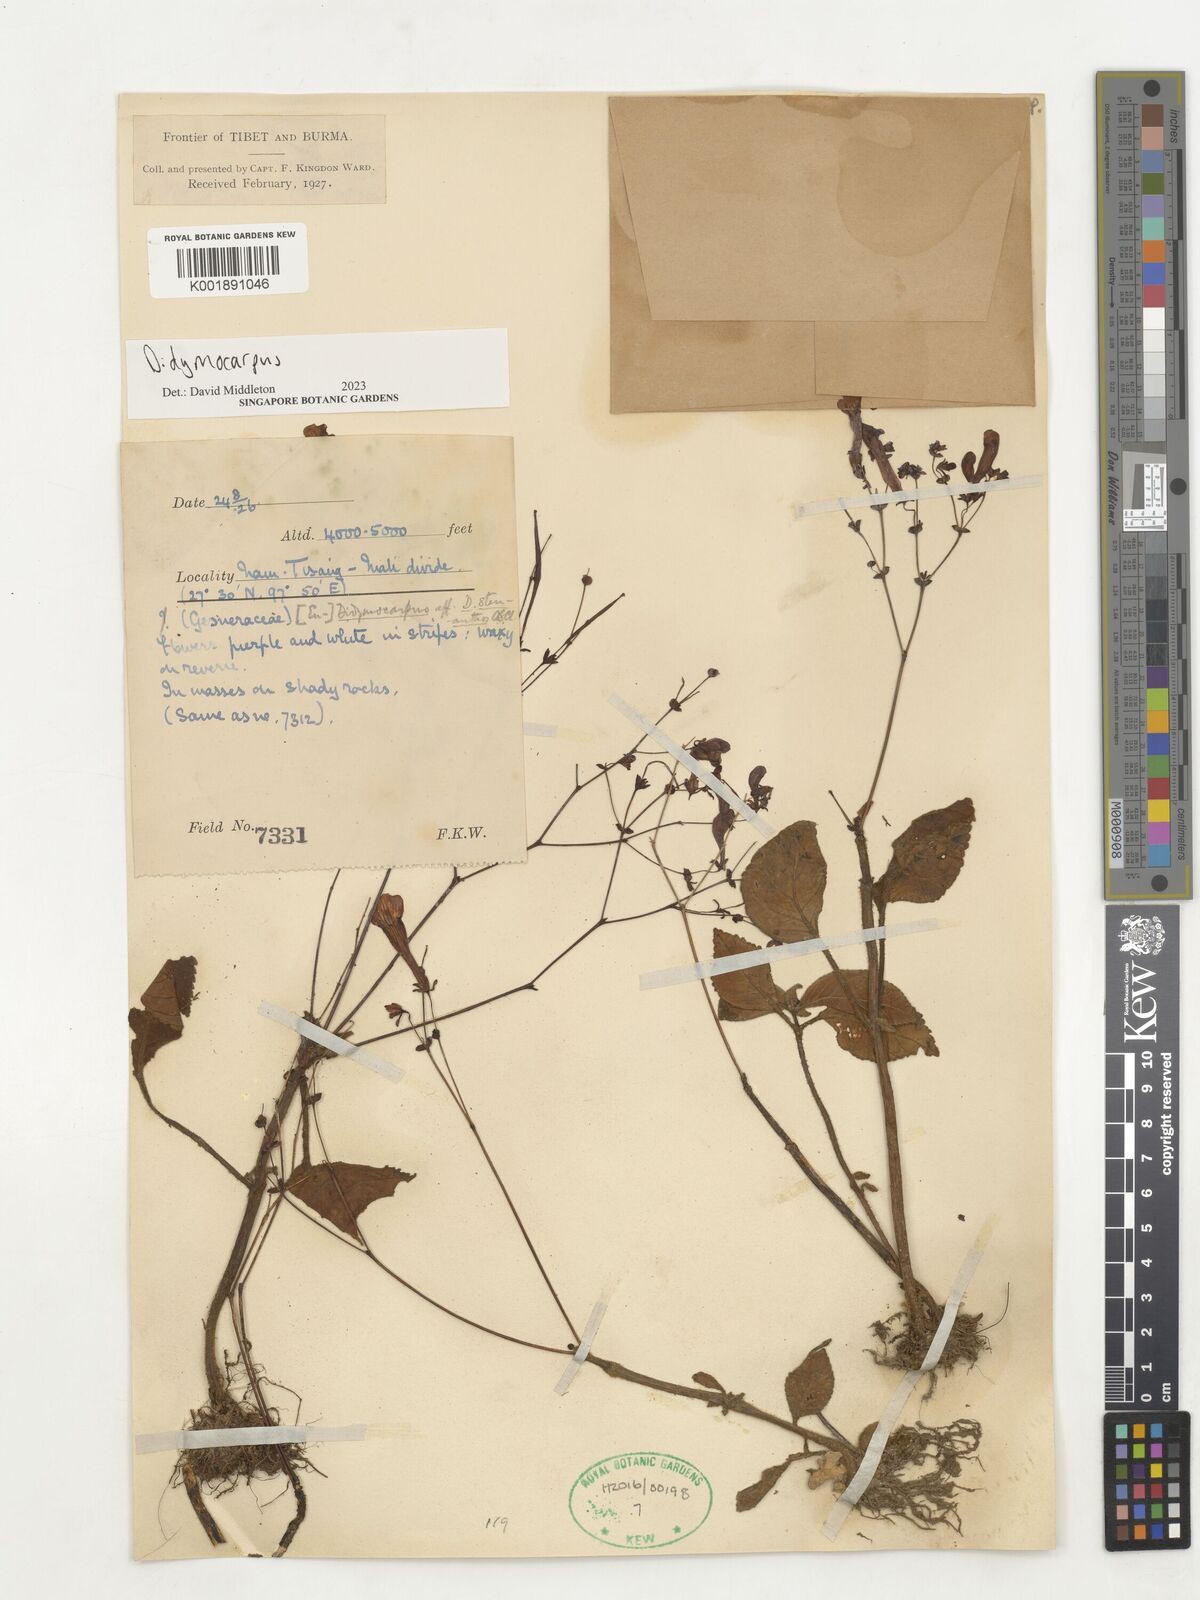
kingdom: Plantae
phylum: Tracheophyta
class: Magnoliopsida
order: Lamiales
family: Gesneriaceae
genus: Didymocarpus
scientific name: Didymocarpus
